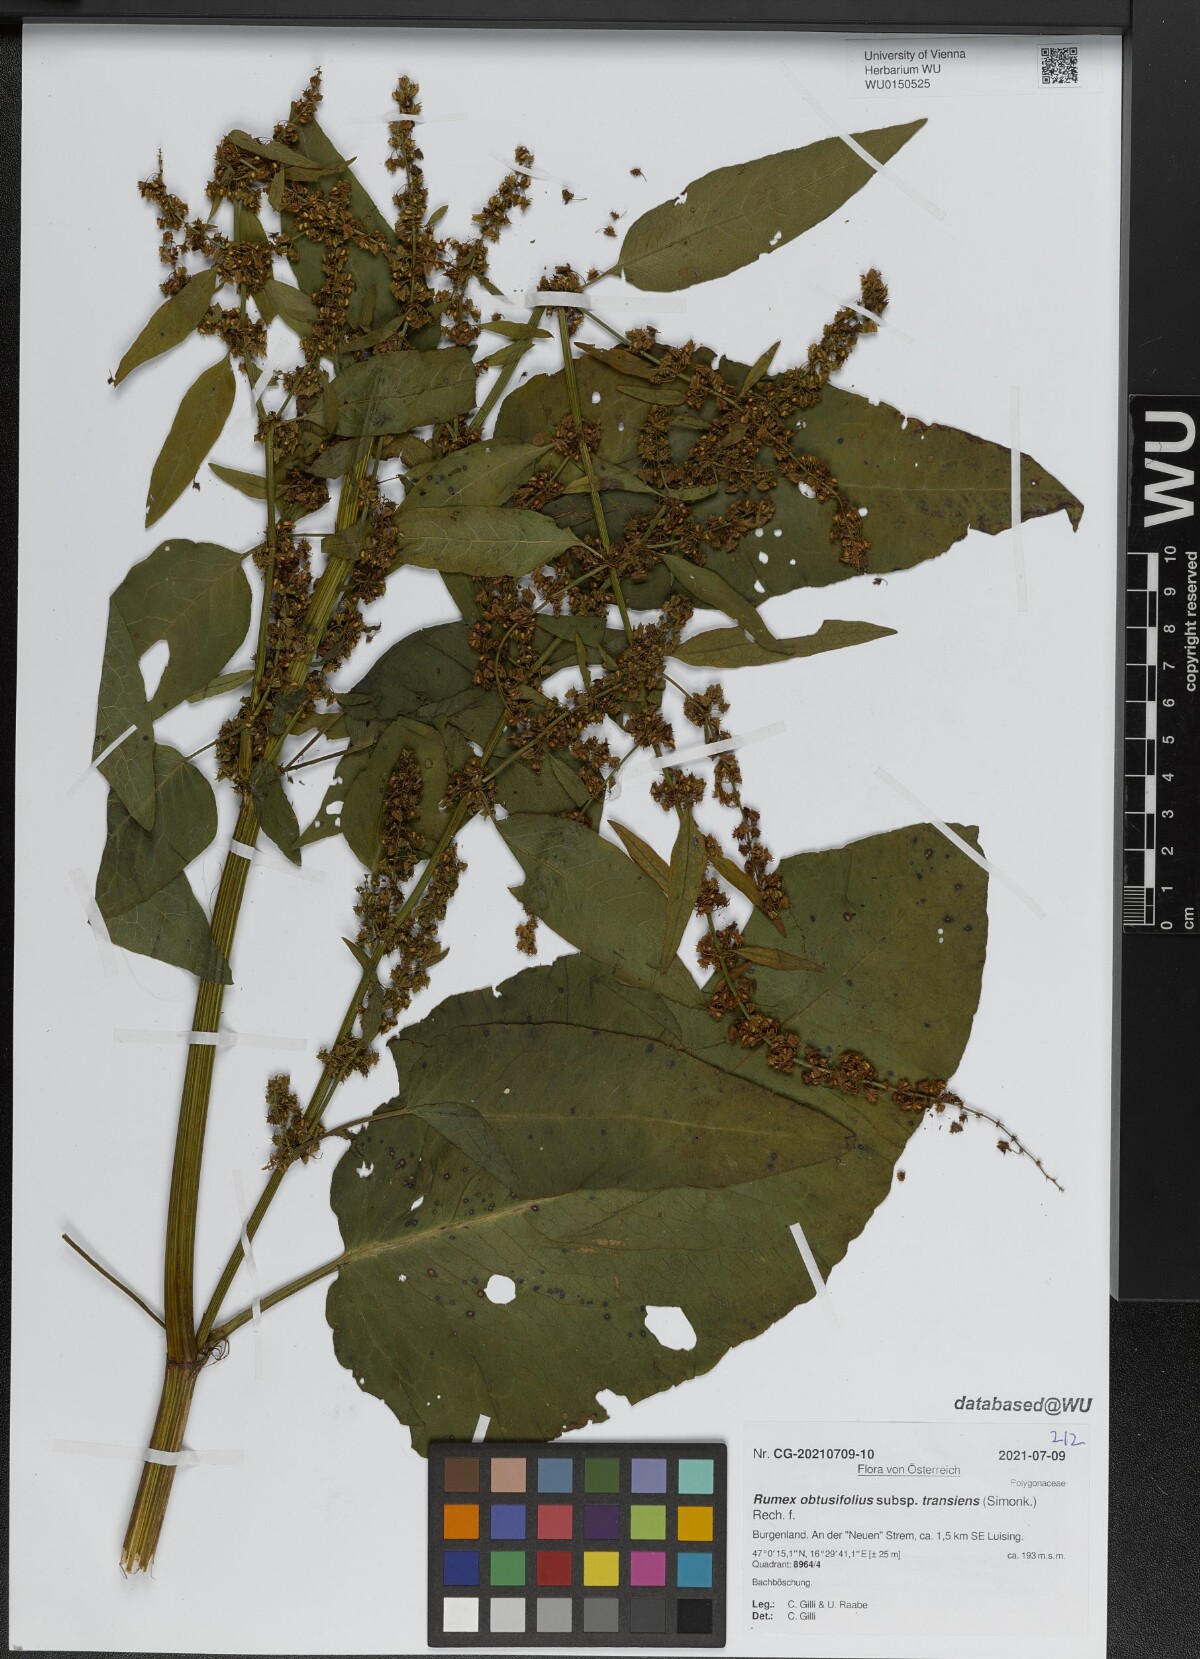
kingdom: Plantae
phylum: Tracheophyta
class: Magnoliopsida
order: Caryophyllales
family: Polygonaceae
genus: Rumex
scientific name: Rumex obtusifolius
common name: Bitter dock
